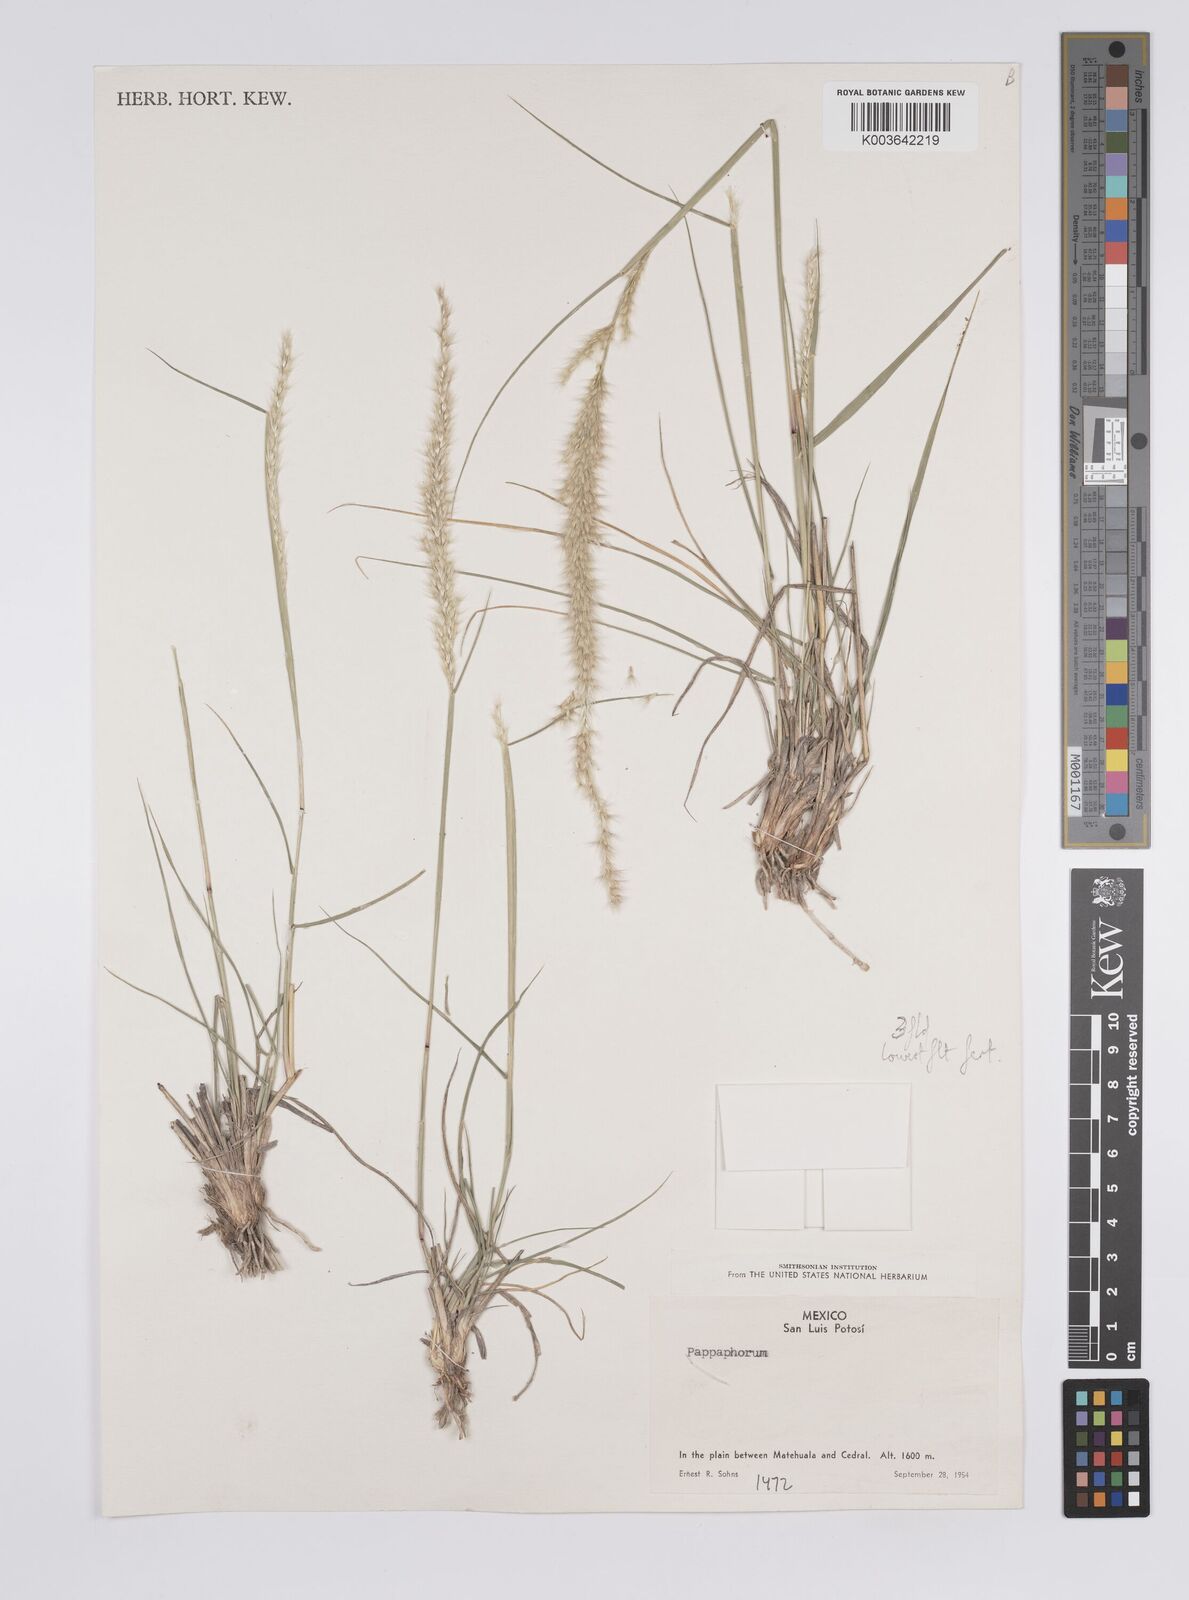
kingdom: Plantae
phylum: Tracheophyta
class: Liliopsida
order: Poales
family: Poaceae
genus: Pappophorum
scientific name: Pappophorum mucronulatum
